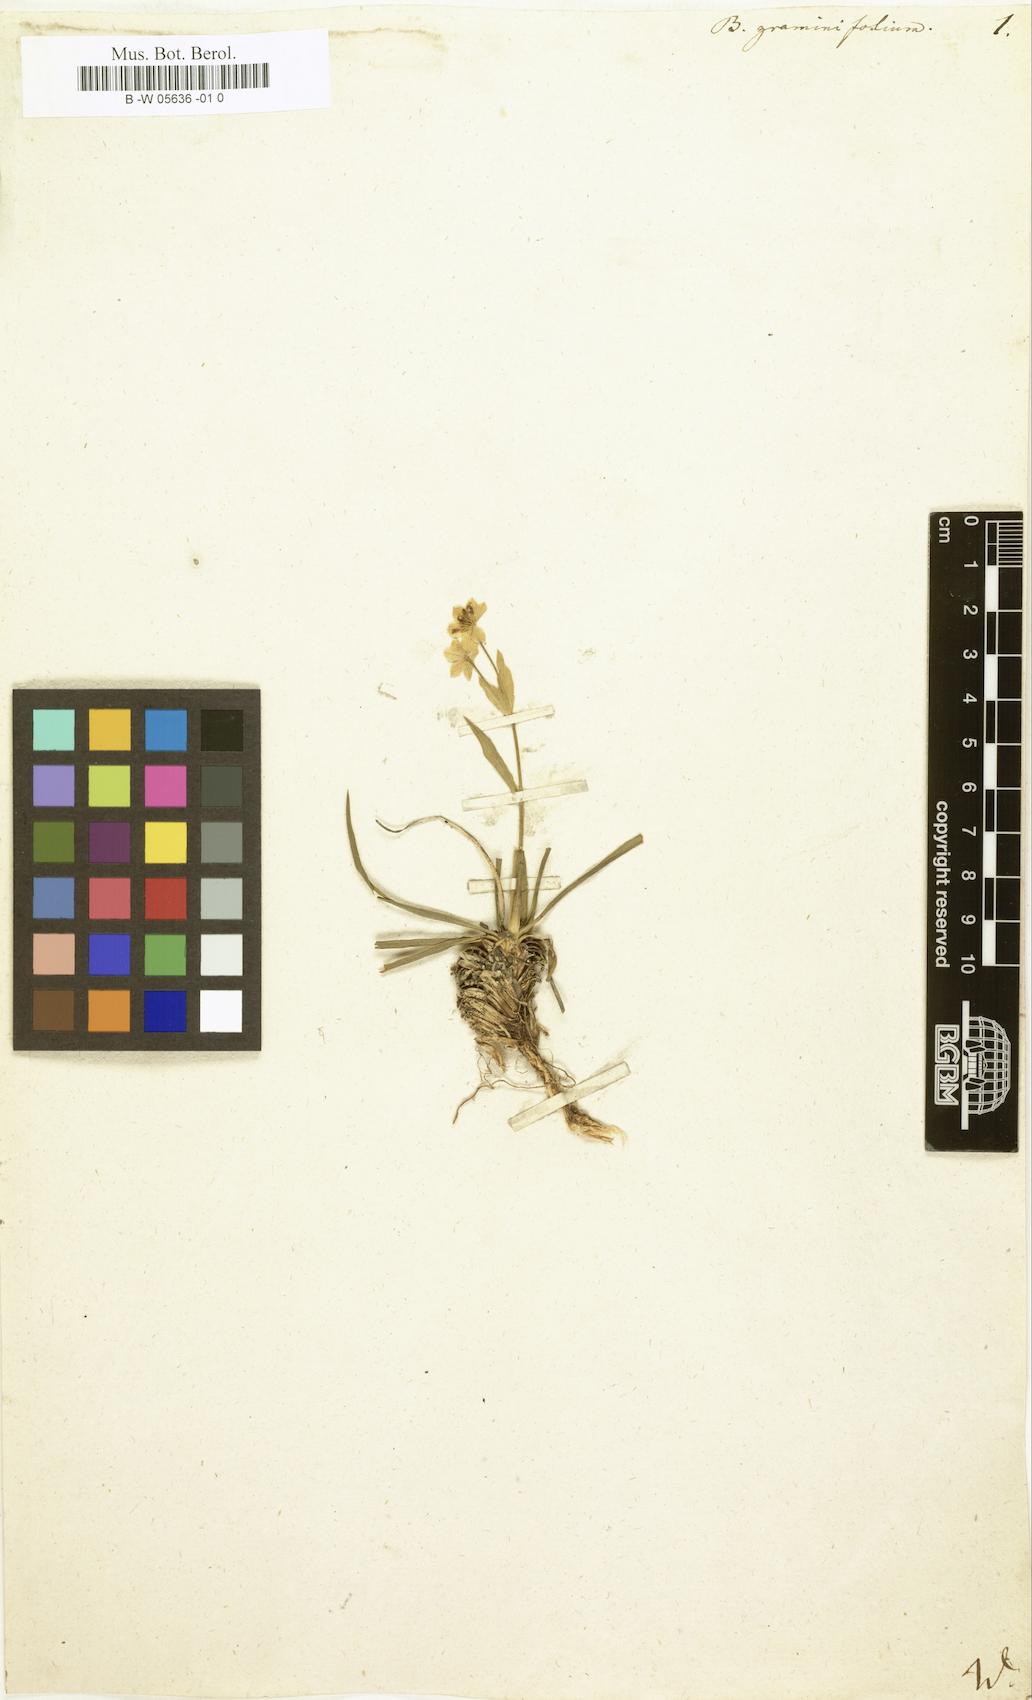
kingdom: Plantae
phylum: Tracheophyta
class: Magnoliopsida
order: Apiales
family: Apiaceae
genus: Bupleurum
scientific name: Bupleurum
